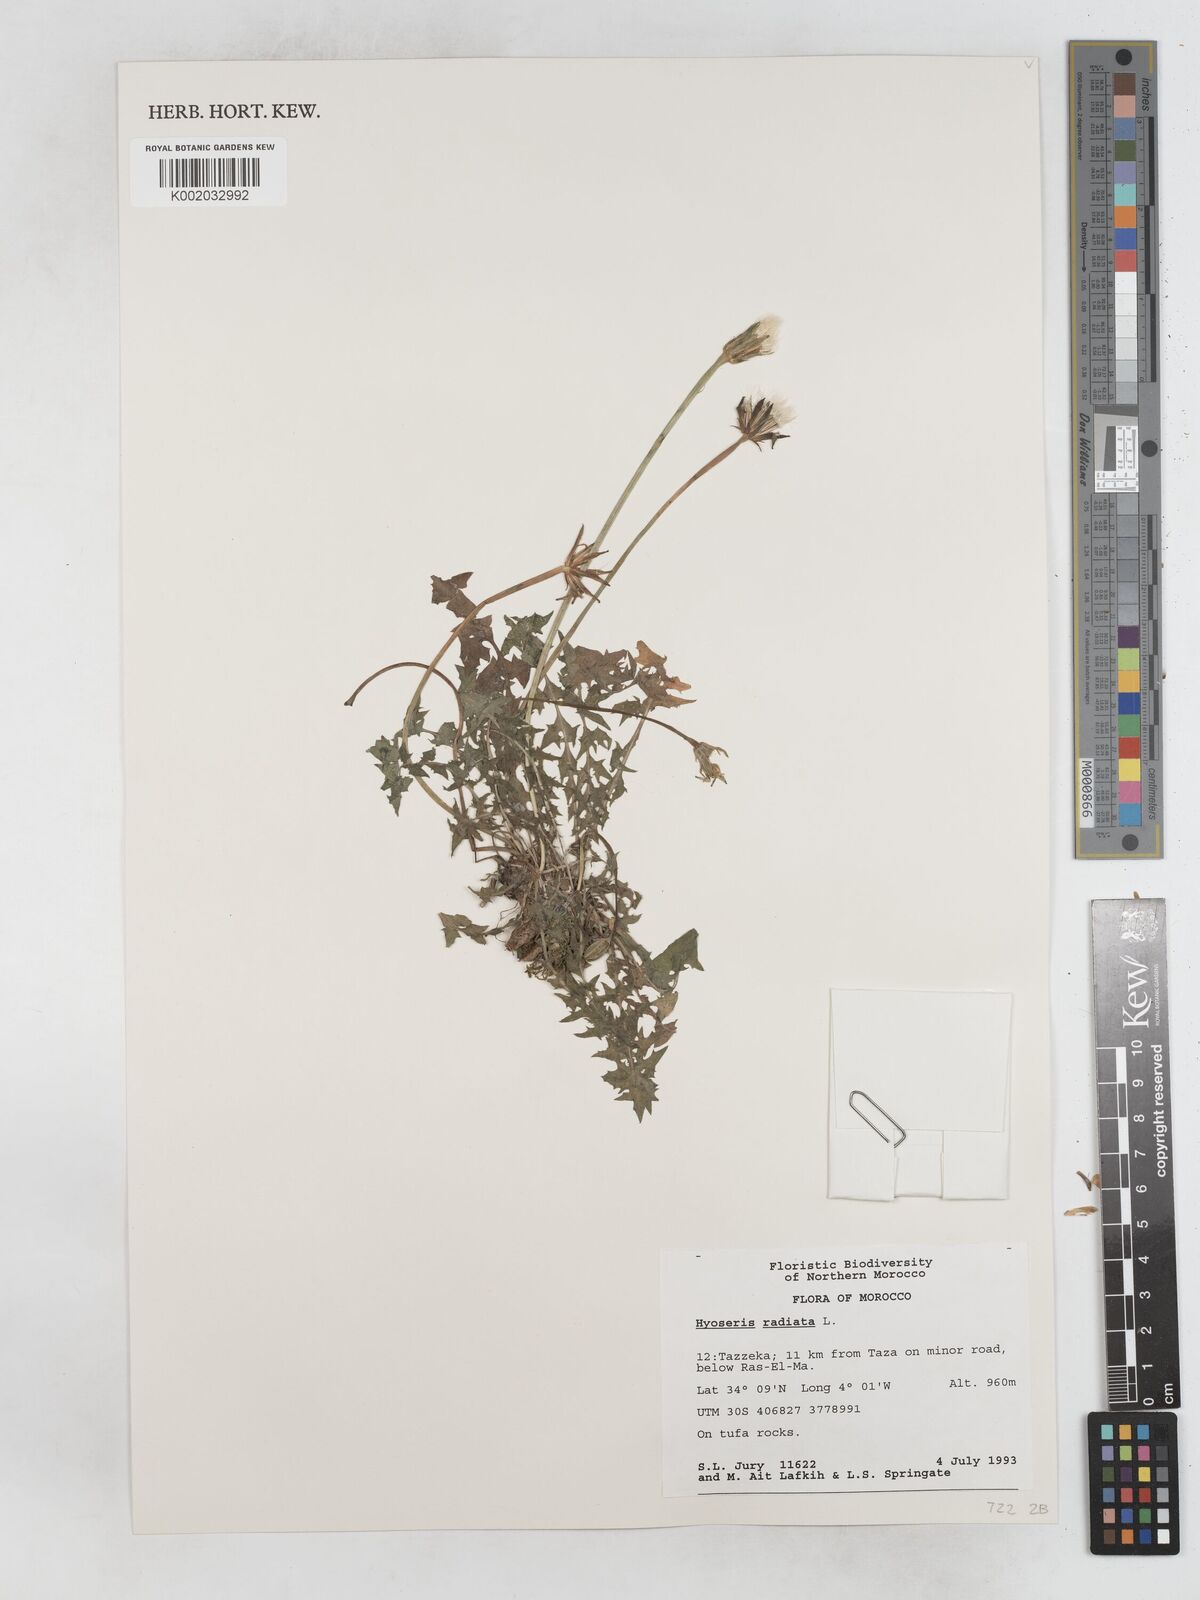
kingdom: Plantae
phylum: Tracheophyta
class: Magnoliopsida
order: Asterales
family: Asteraceae
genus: Hyoseris
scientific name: Hyoseris radiata
